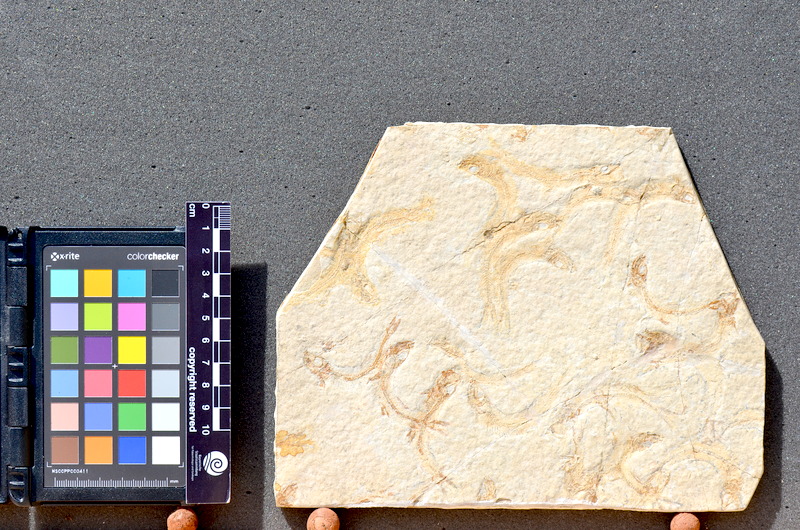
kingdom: Animalia
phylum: Chordata
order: Salmoniformes
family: Orthogonikleithridae
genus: Leptolepides
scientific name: Leptolepides sprattiformis
